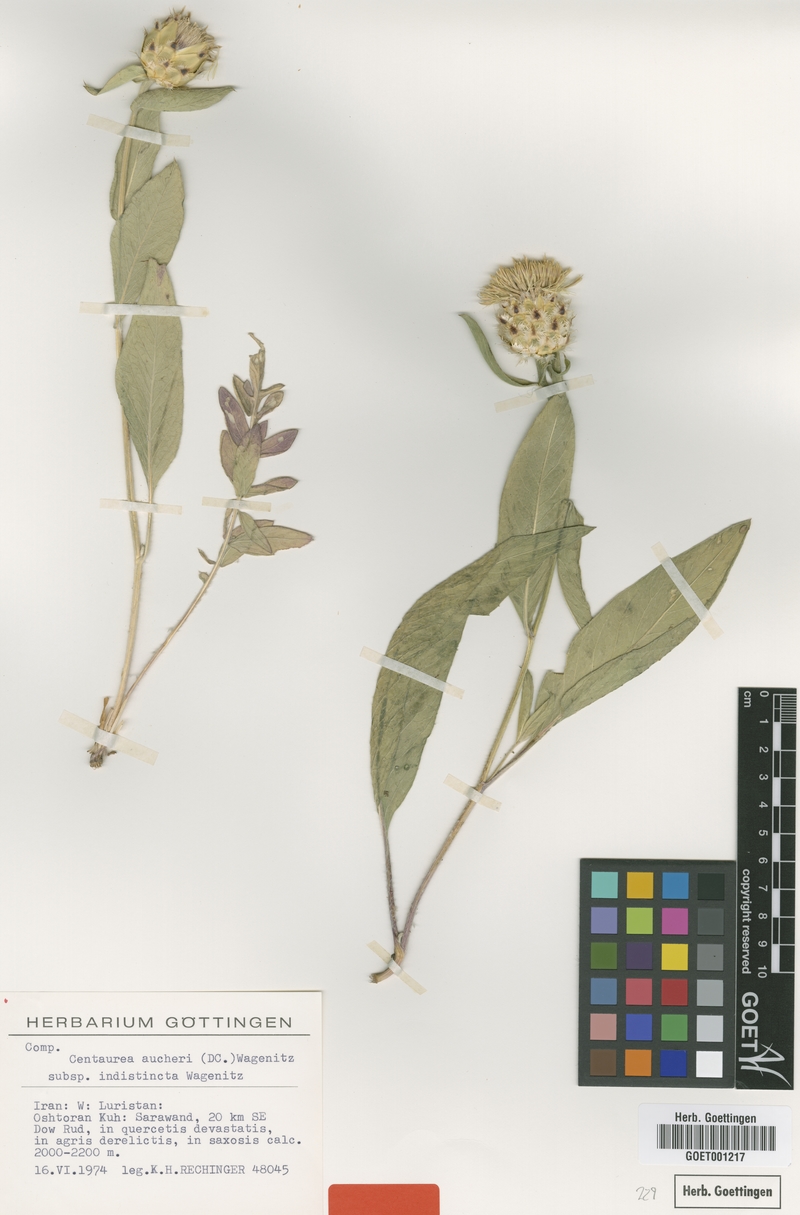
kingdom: Plantae
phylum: Tracheophyta
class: Magnoliopsida
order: Asterales
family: Asteraceae
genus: Centaurea
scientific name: Centaurea indistincta
